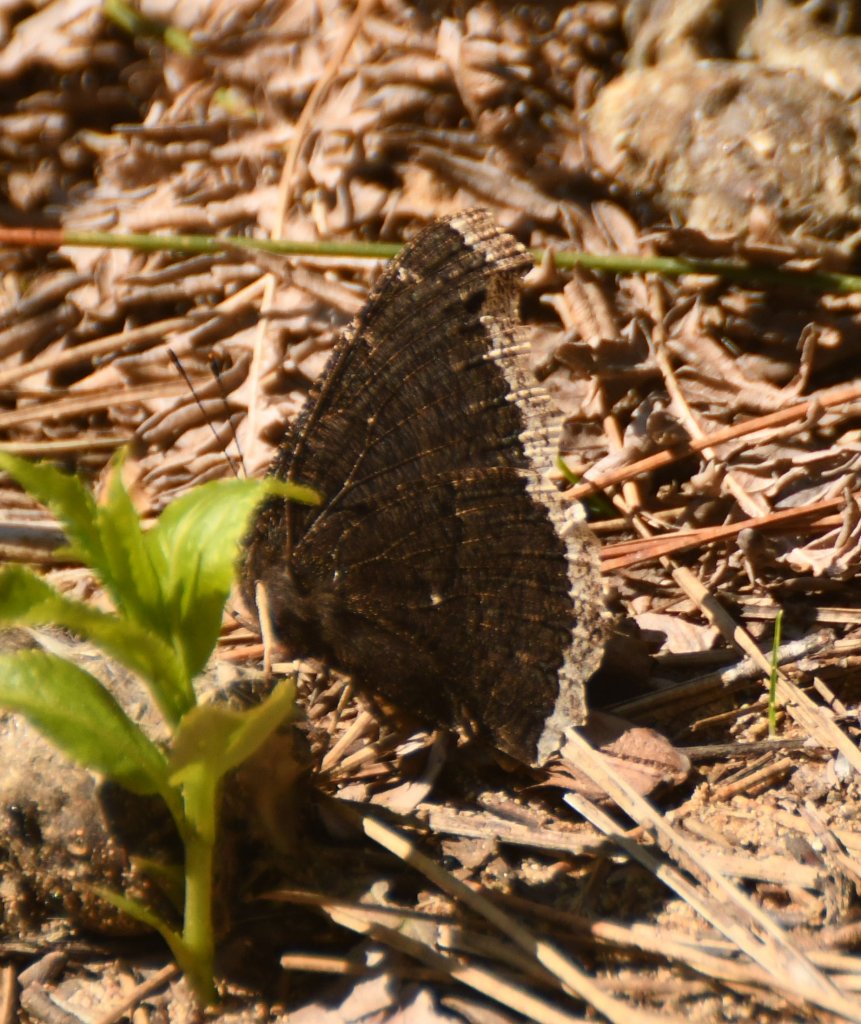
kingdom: Animalia
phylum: Arthropoda
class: Insecta
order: Lepidoptera
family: Nymphalidae
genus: Nymphalis
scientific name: Nymphalis antiopa
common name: Mourning Cloak
